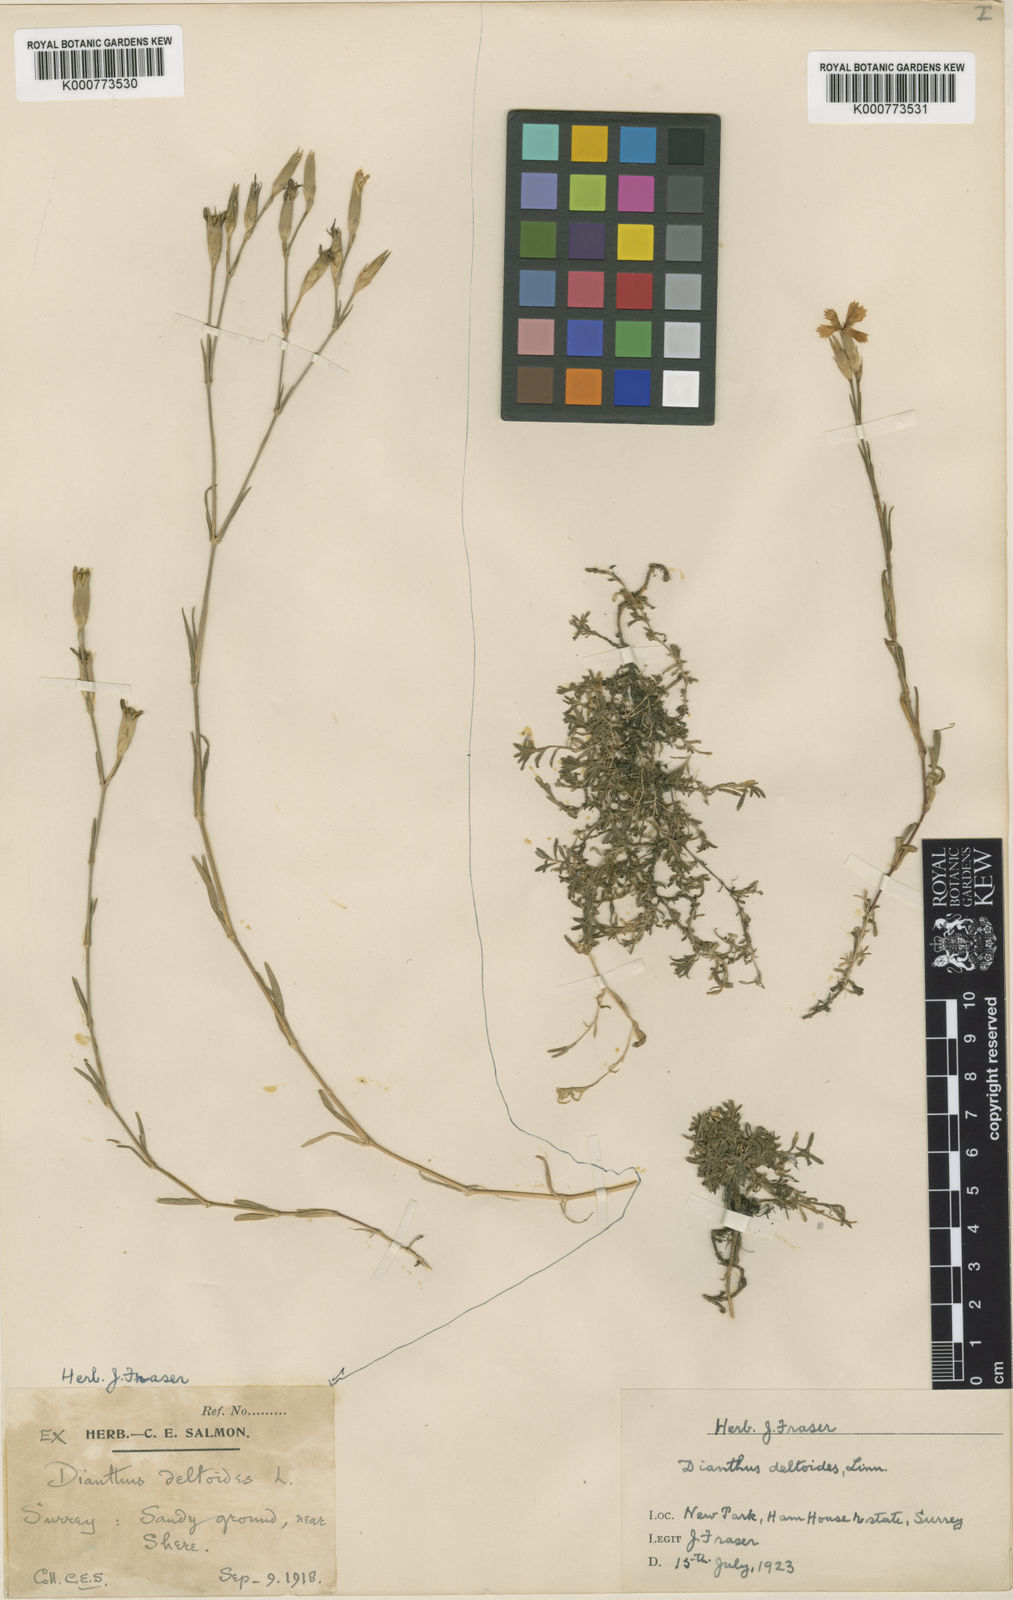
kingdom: Plantae
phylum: Tracheophyta
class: Magnoliopsida
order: Caryophyllales
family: Caryophyllaceae
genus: Dianthus
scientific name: Dianthus deltoides
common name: Maiden pink
